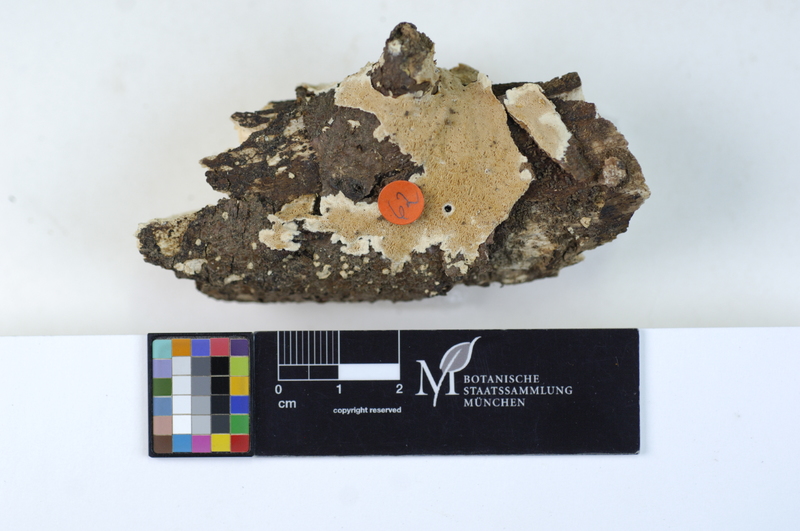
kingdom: Plantae
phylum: Tracheophyta
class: Magnoliopsida
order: Fagales
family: Fagaceae
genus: Fagus
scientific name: Fagus sylvatica
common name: Beech
